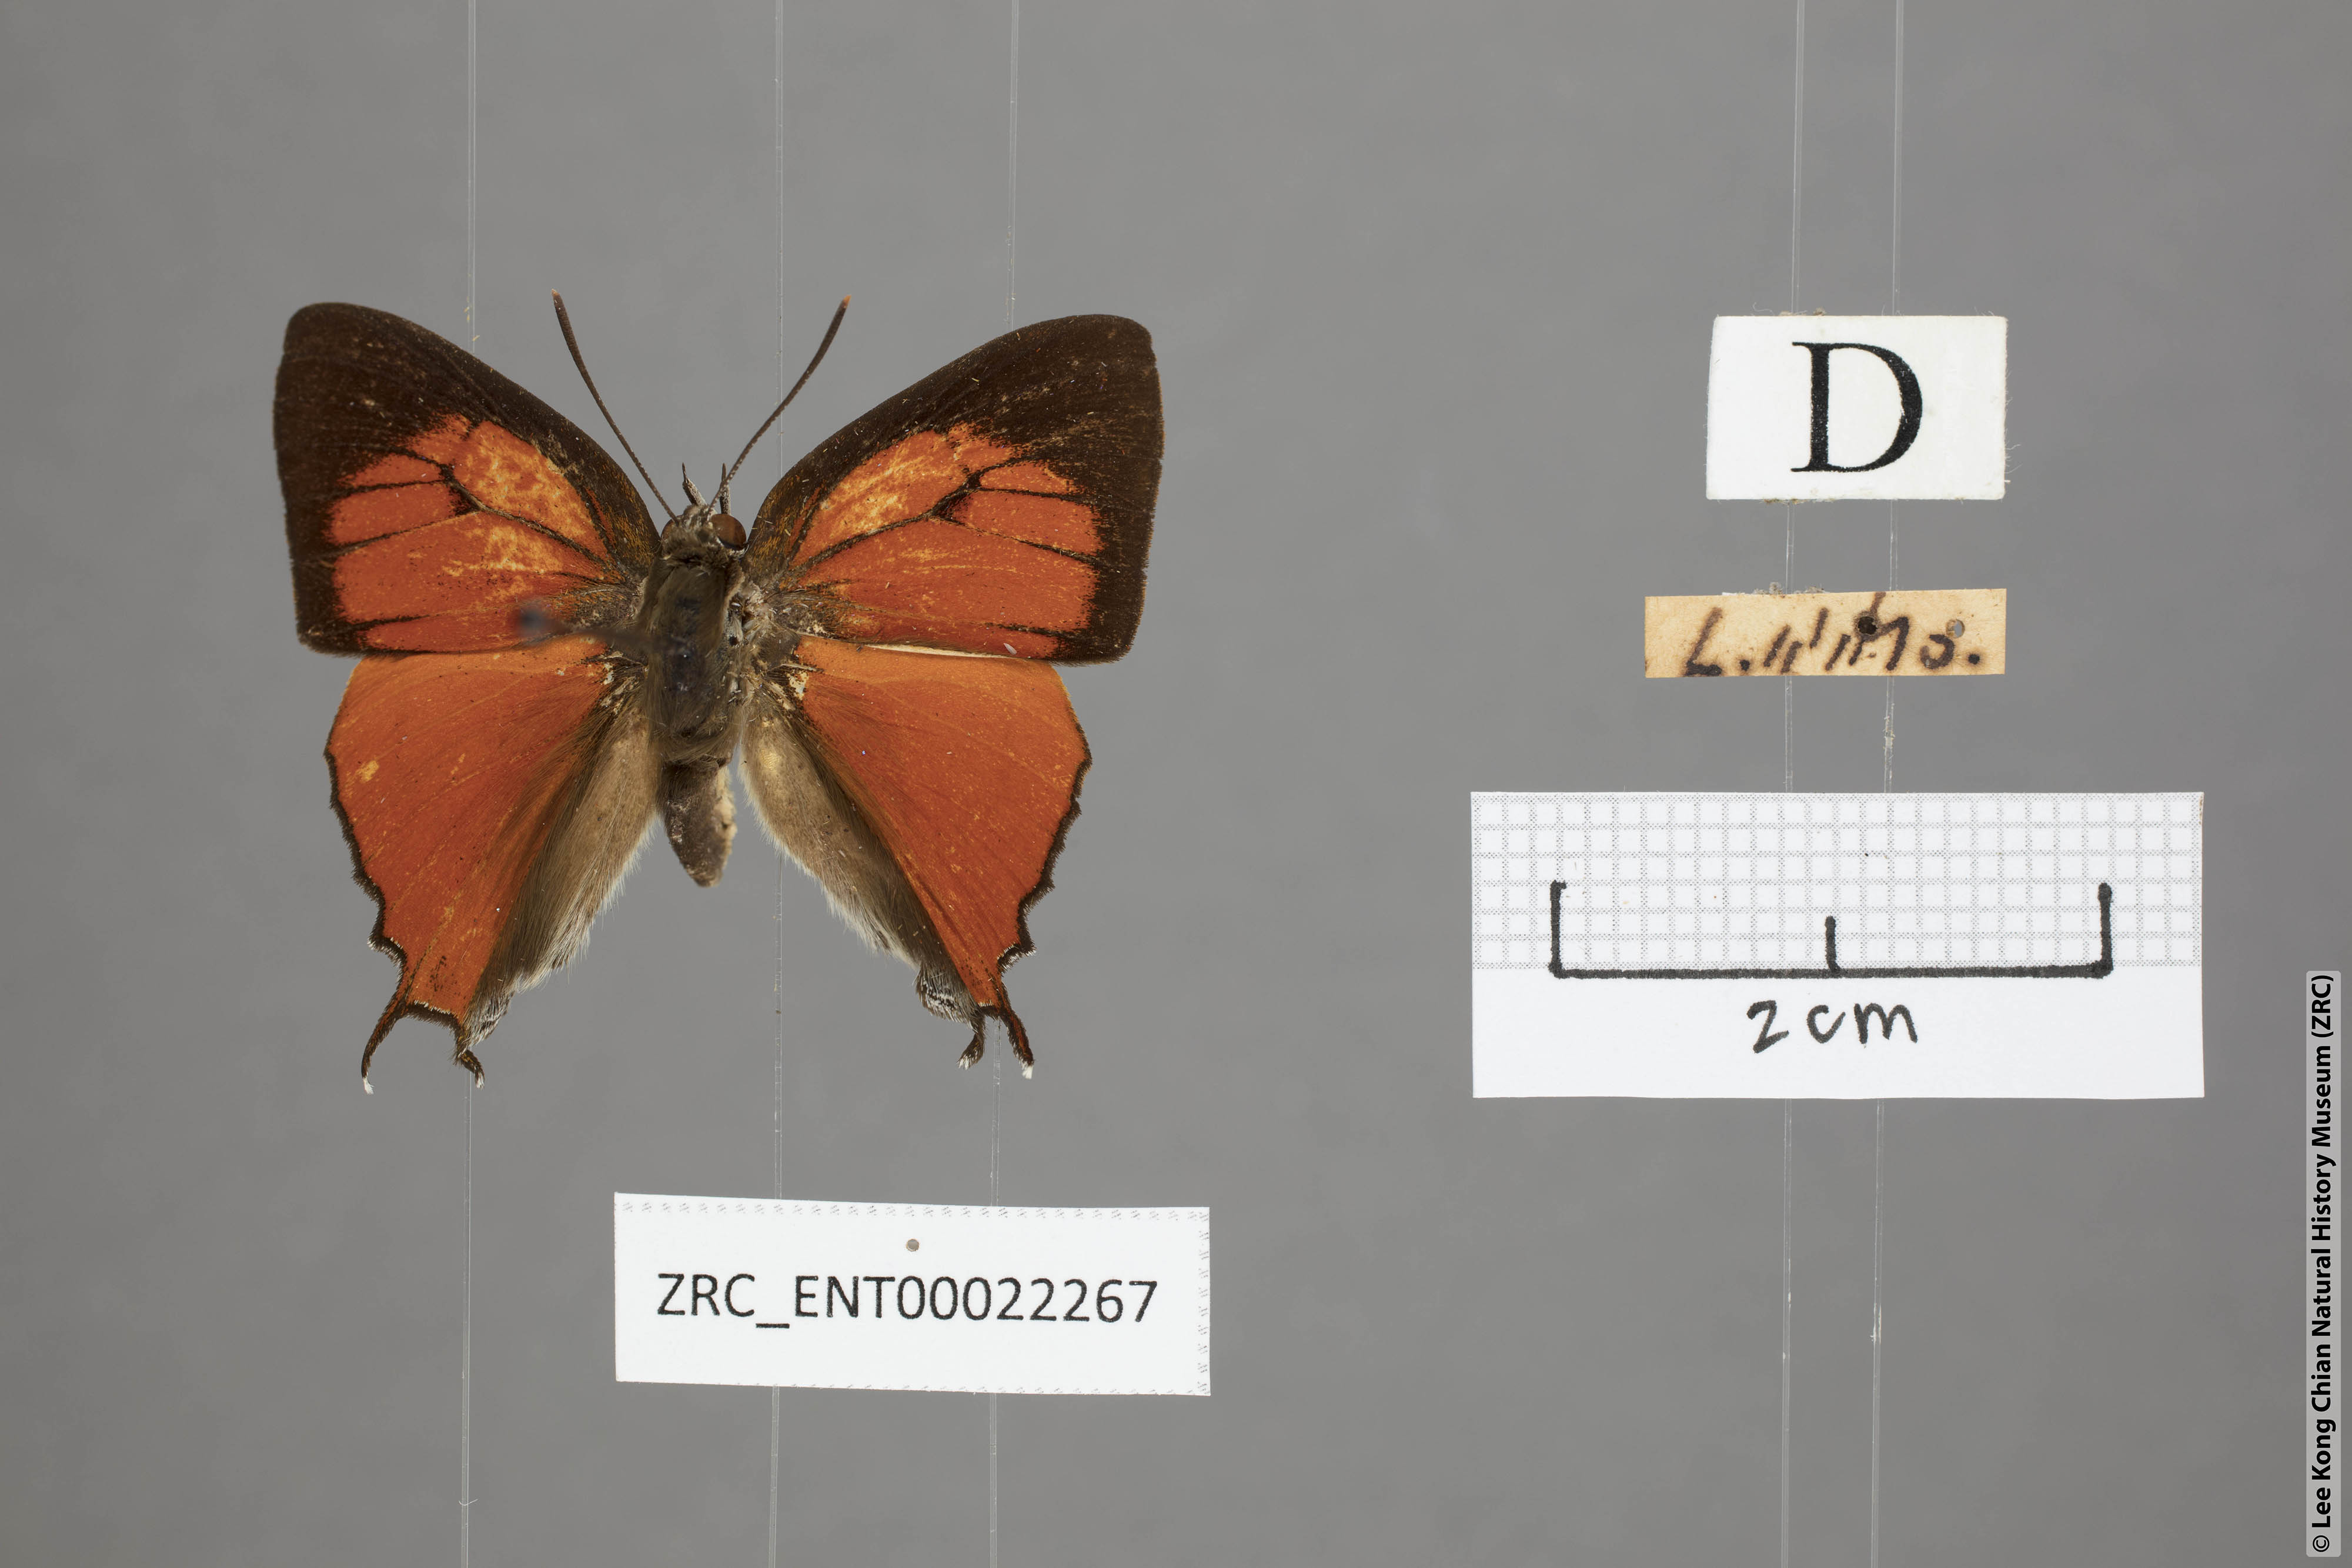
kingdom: Animalia
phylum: Arthropoda
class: Insecta
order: Lepidoptera
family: Lycaenidae
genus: Thamala
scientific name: Thamala marciana
